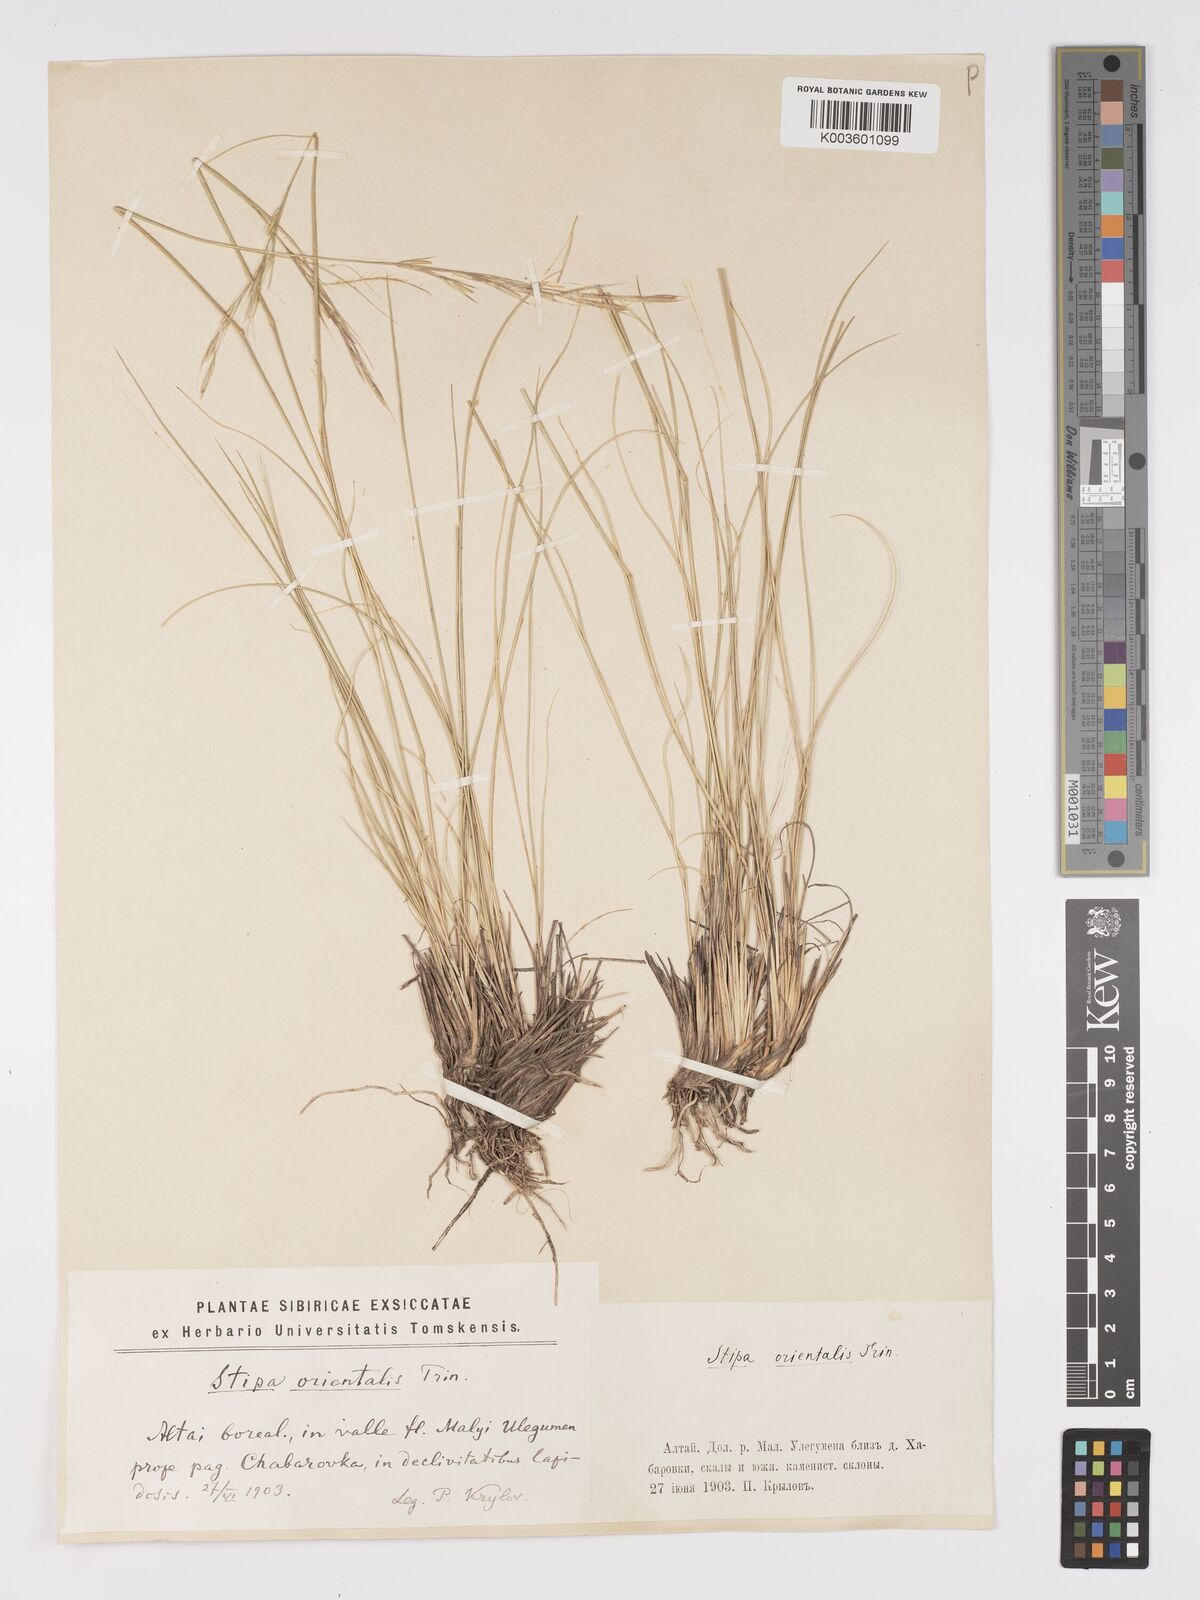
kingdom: Plantae
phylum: Tracheophyta
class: Liliopsida
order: Poales
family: Poaceae
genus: Stipa
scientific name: Stipa orientalis
